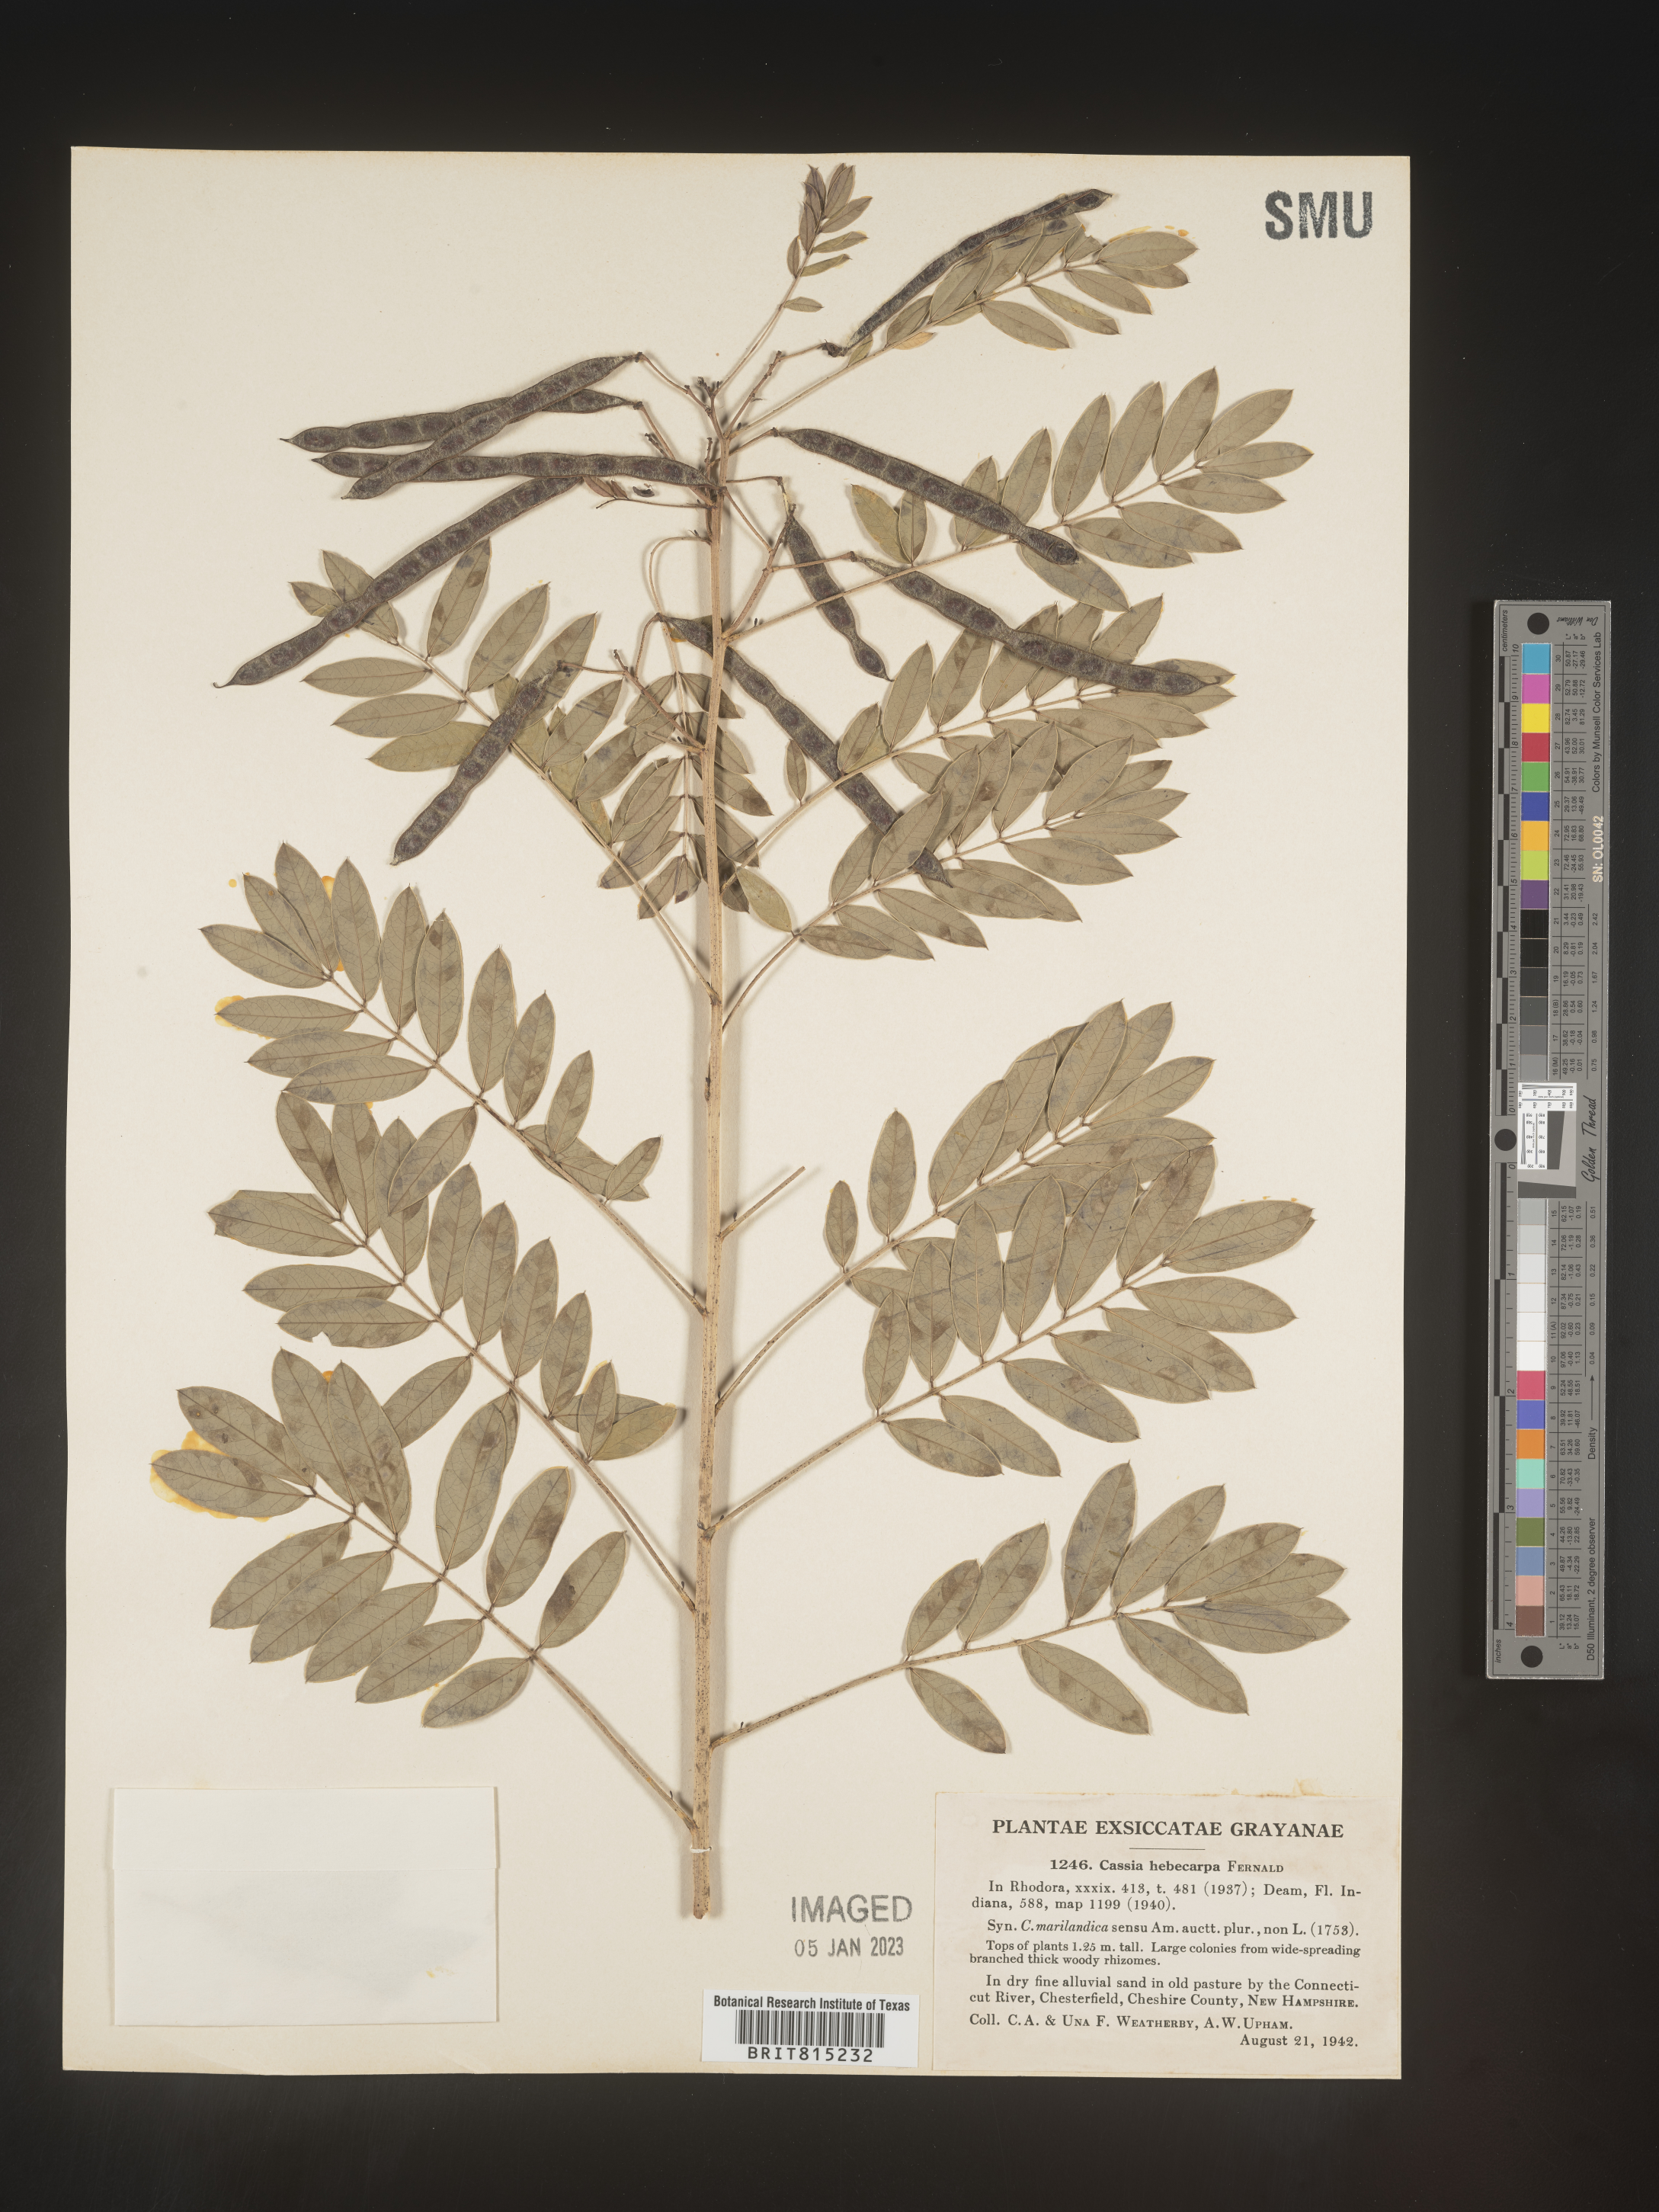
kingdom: Plantae
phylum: Tracheophyta
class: Magnoliopsida
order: Fabales
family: Fabaceae
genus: Senna
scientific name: Senna hebecarpa
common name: Wild senna
